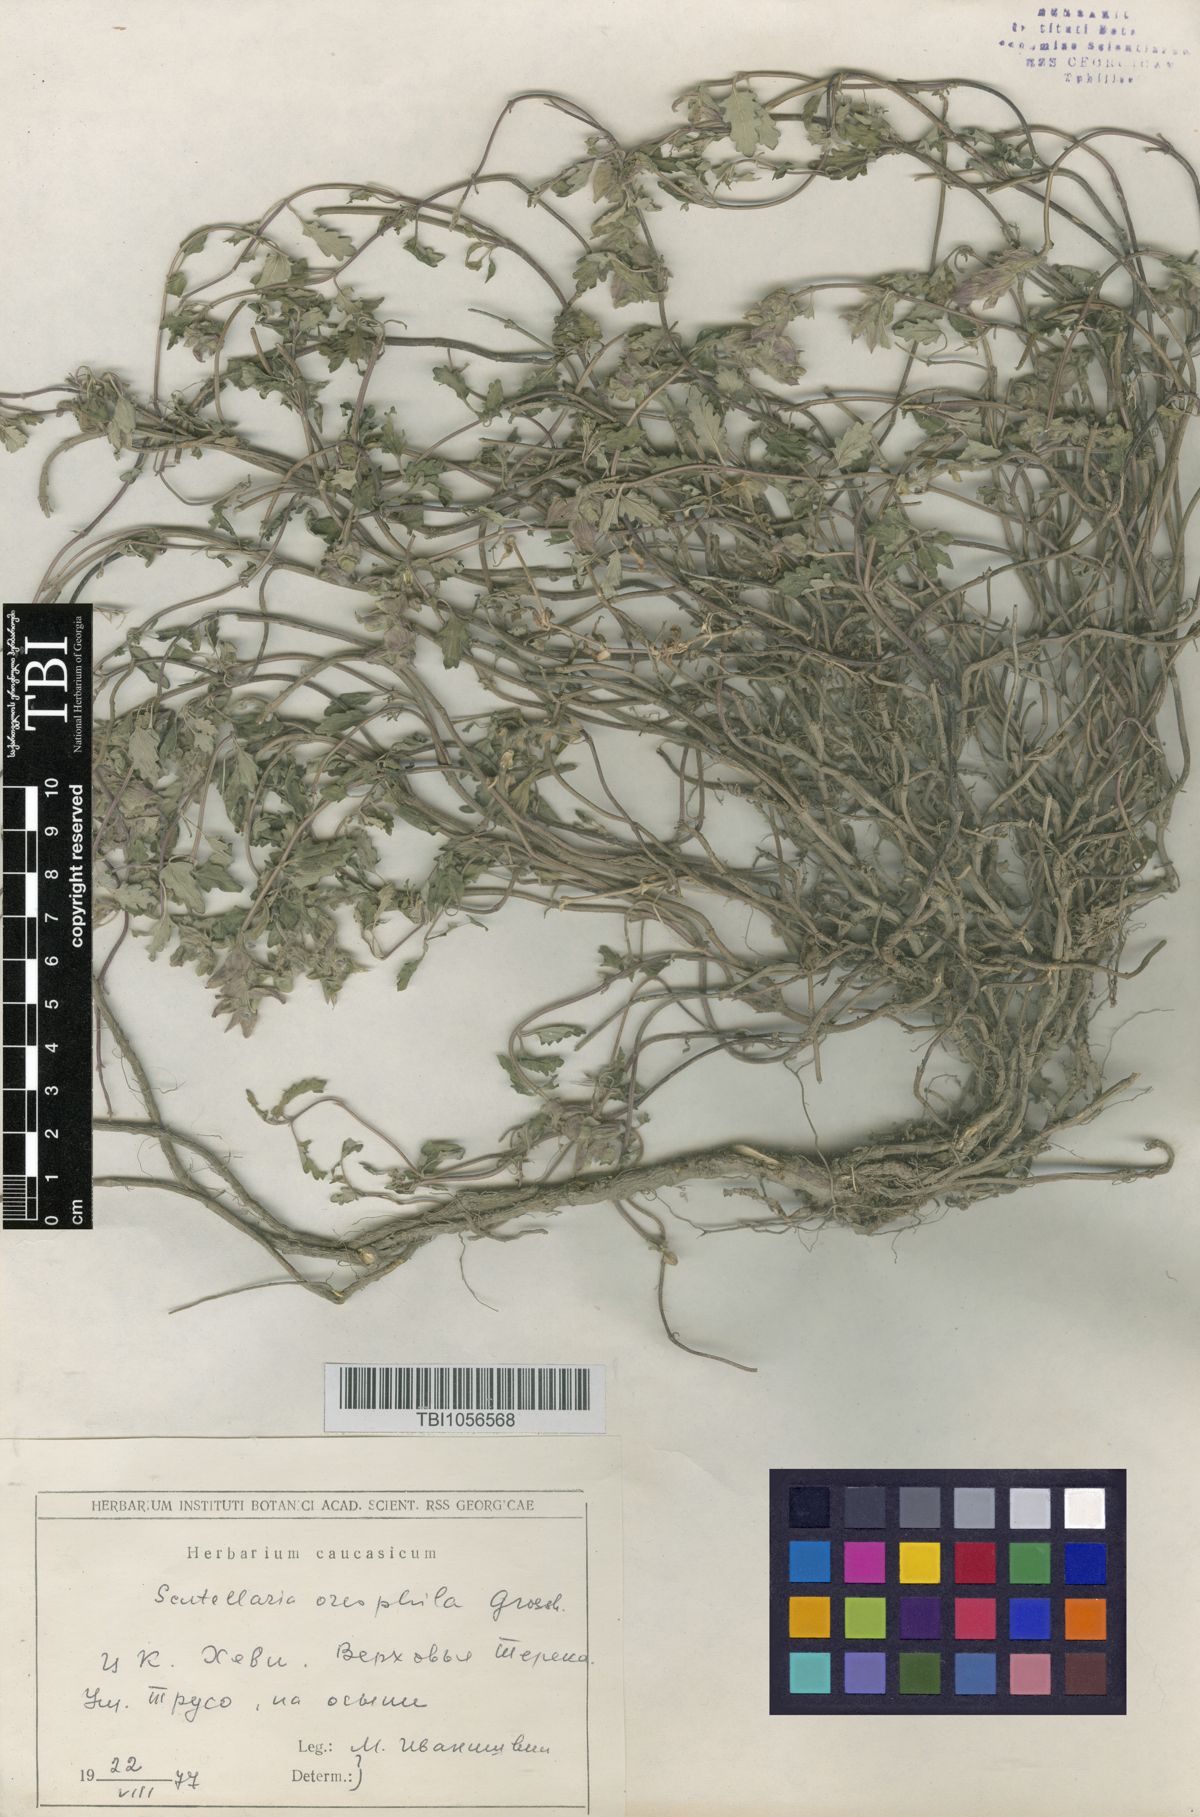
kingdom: Plantae
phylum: Tracheophyta
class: Magnoliopsida
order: Lamiales
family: Lamiaceae
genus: Scutellaria
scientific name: Scutellaria oreophila
